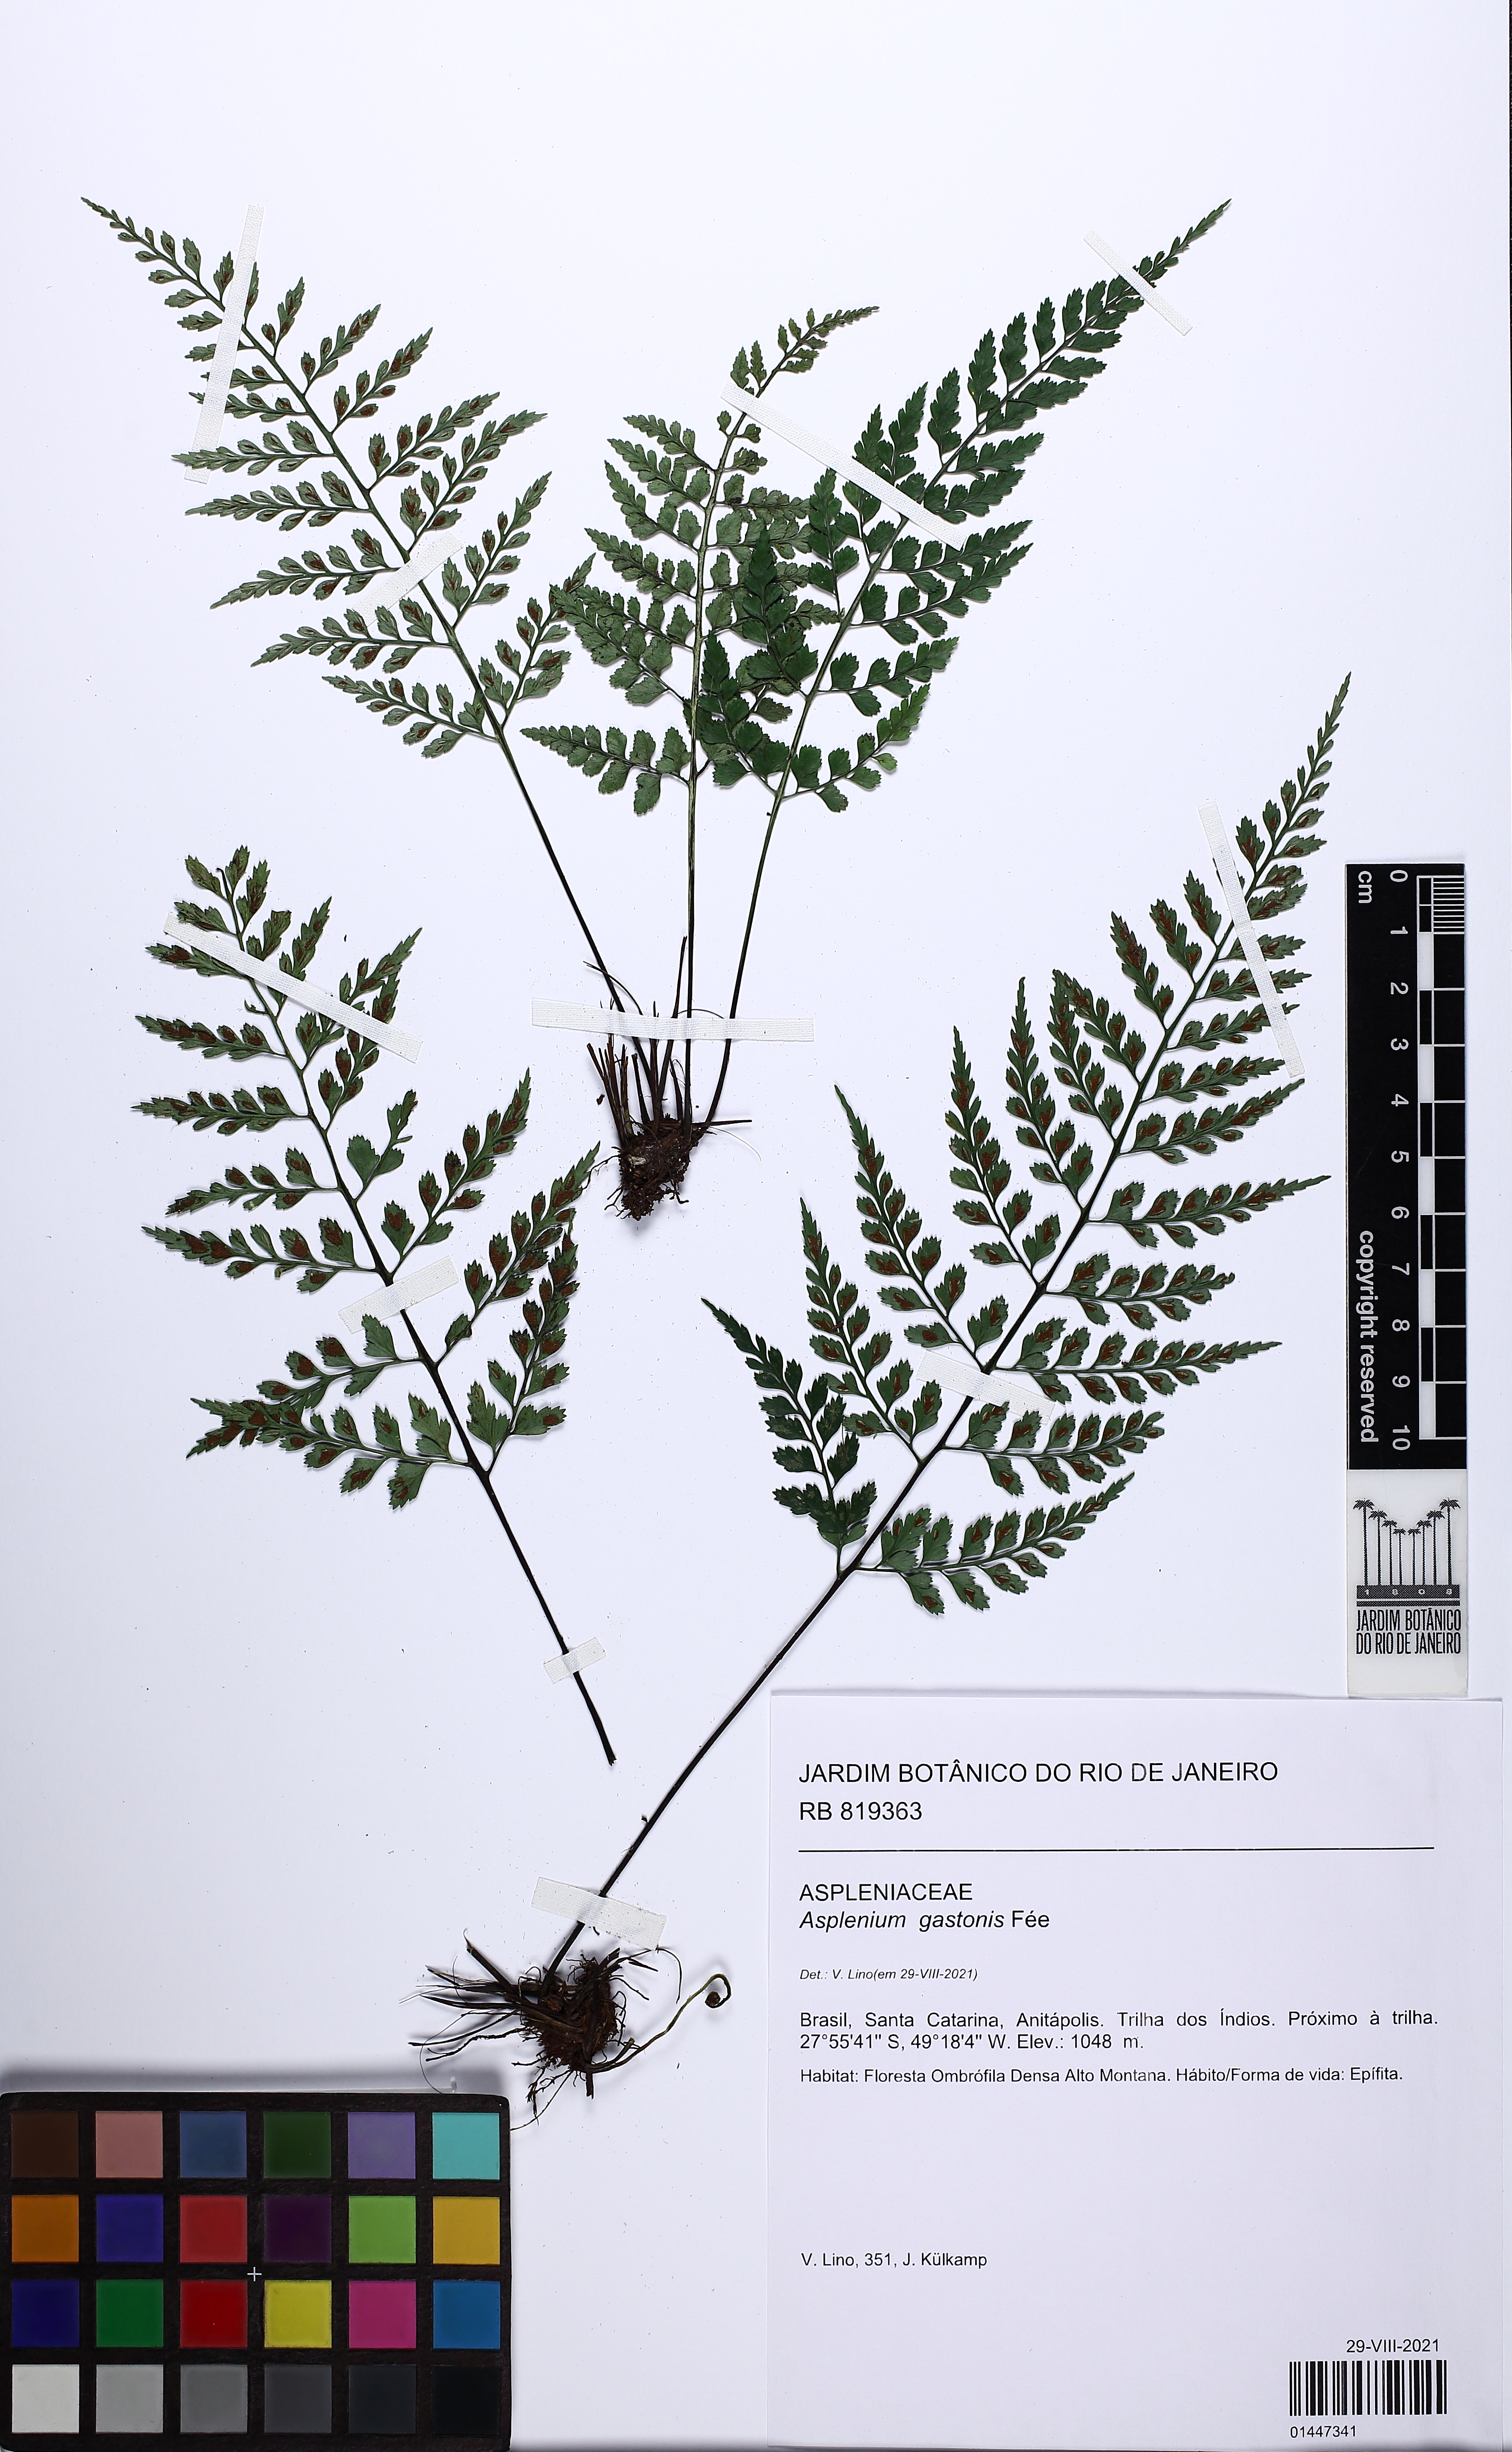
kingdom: Plantae
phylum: Tracheophyta
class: Polypodiopsida
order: Polypodiales
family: Aspleniaceae
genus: Asplenium
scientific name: Asplenium gastonis
